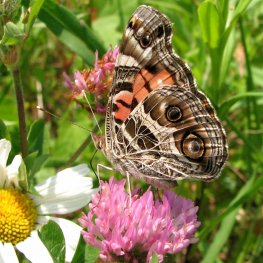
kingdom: Animalia
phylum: Arthropoda
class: Insecta
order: Lepidoptera
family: Nymphalidae
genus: Vanessa
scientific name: Vanessa virginiensis
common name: American Lady
